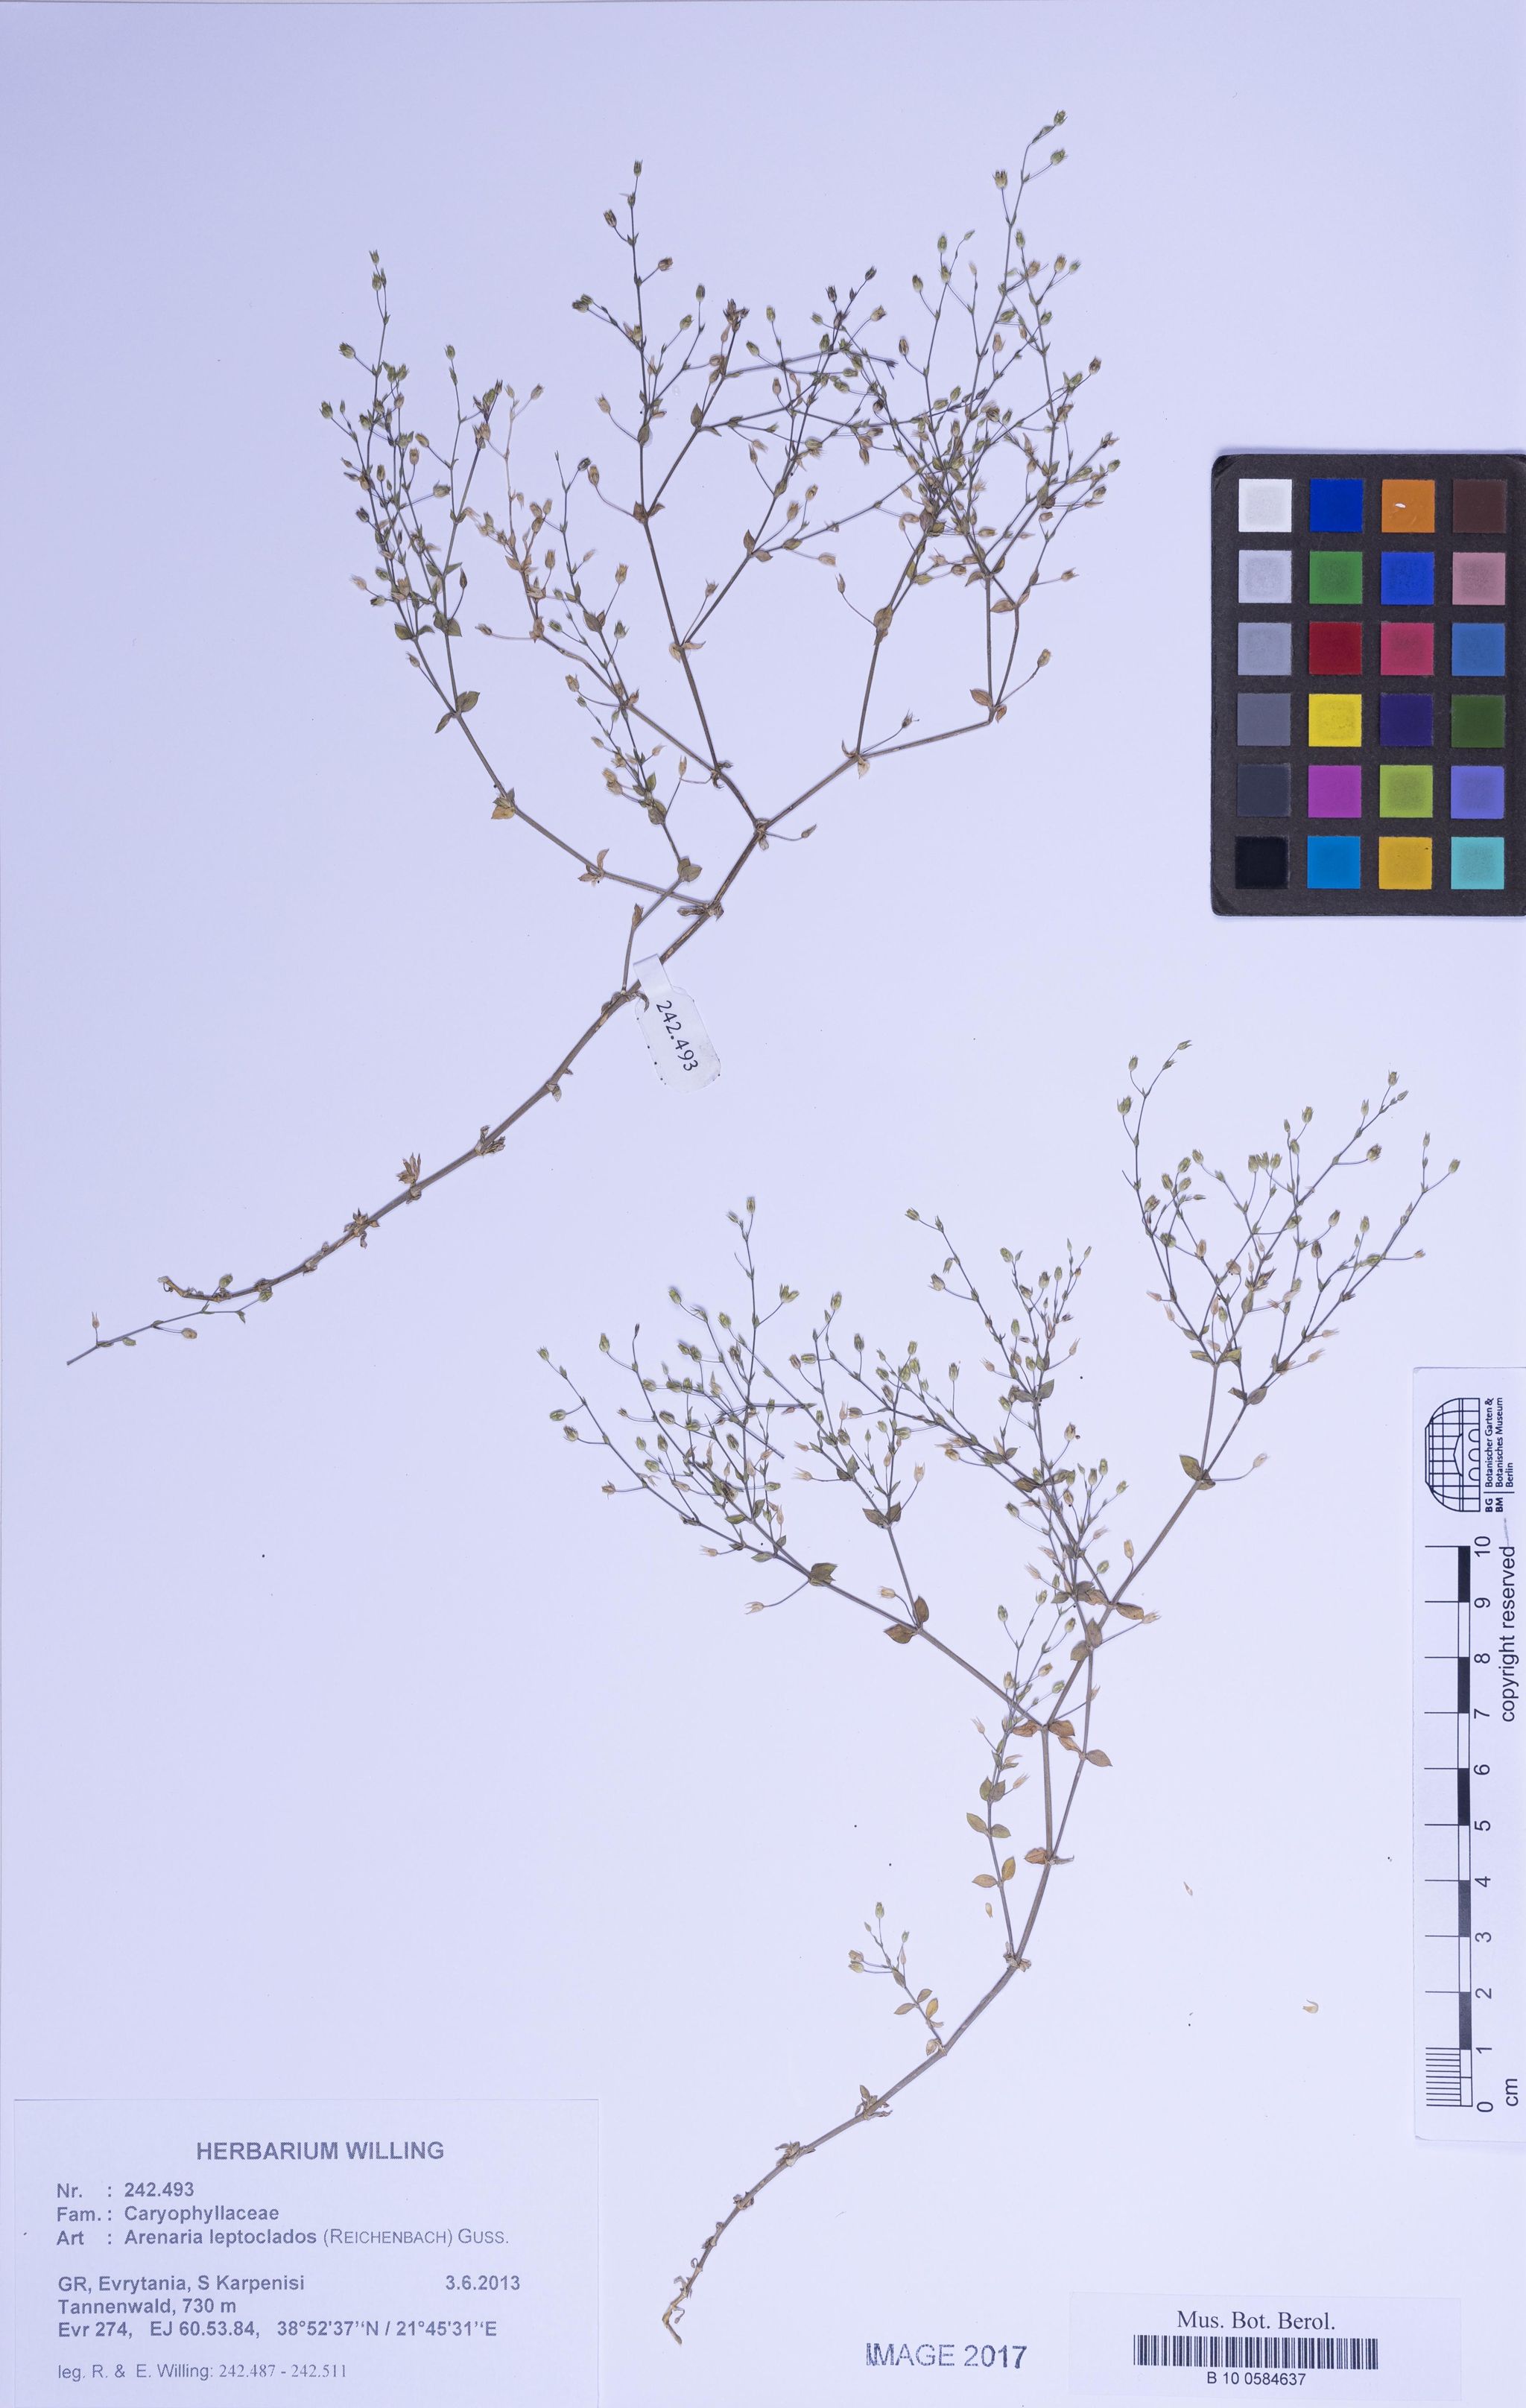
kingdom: Plantae
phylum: Tracheophyta
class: Magnoliopsida
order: Caryophyllales
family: Caryophyllaceae
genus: Arenaria
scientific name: Arenaria leptoclados
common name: Thyme-leaved sandwort
